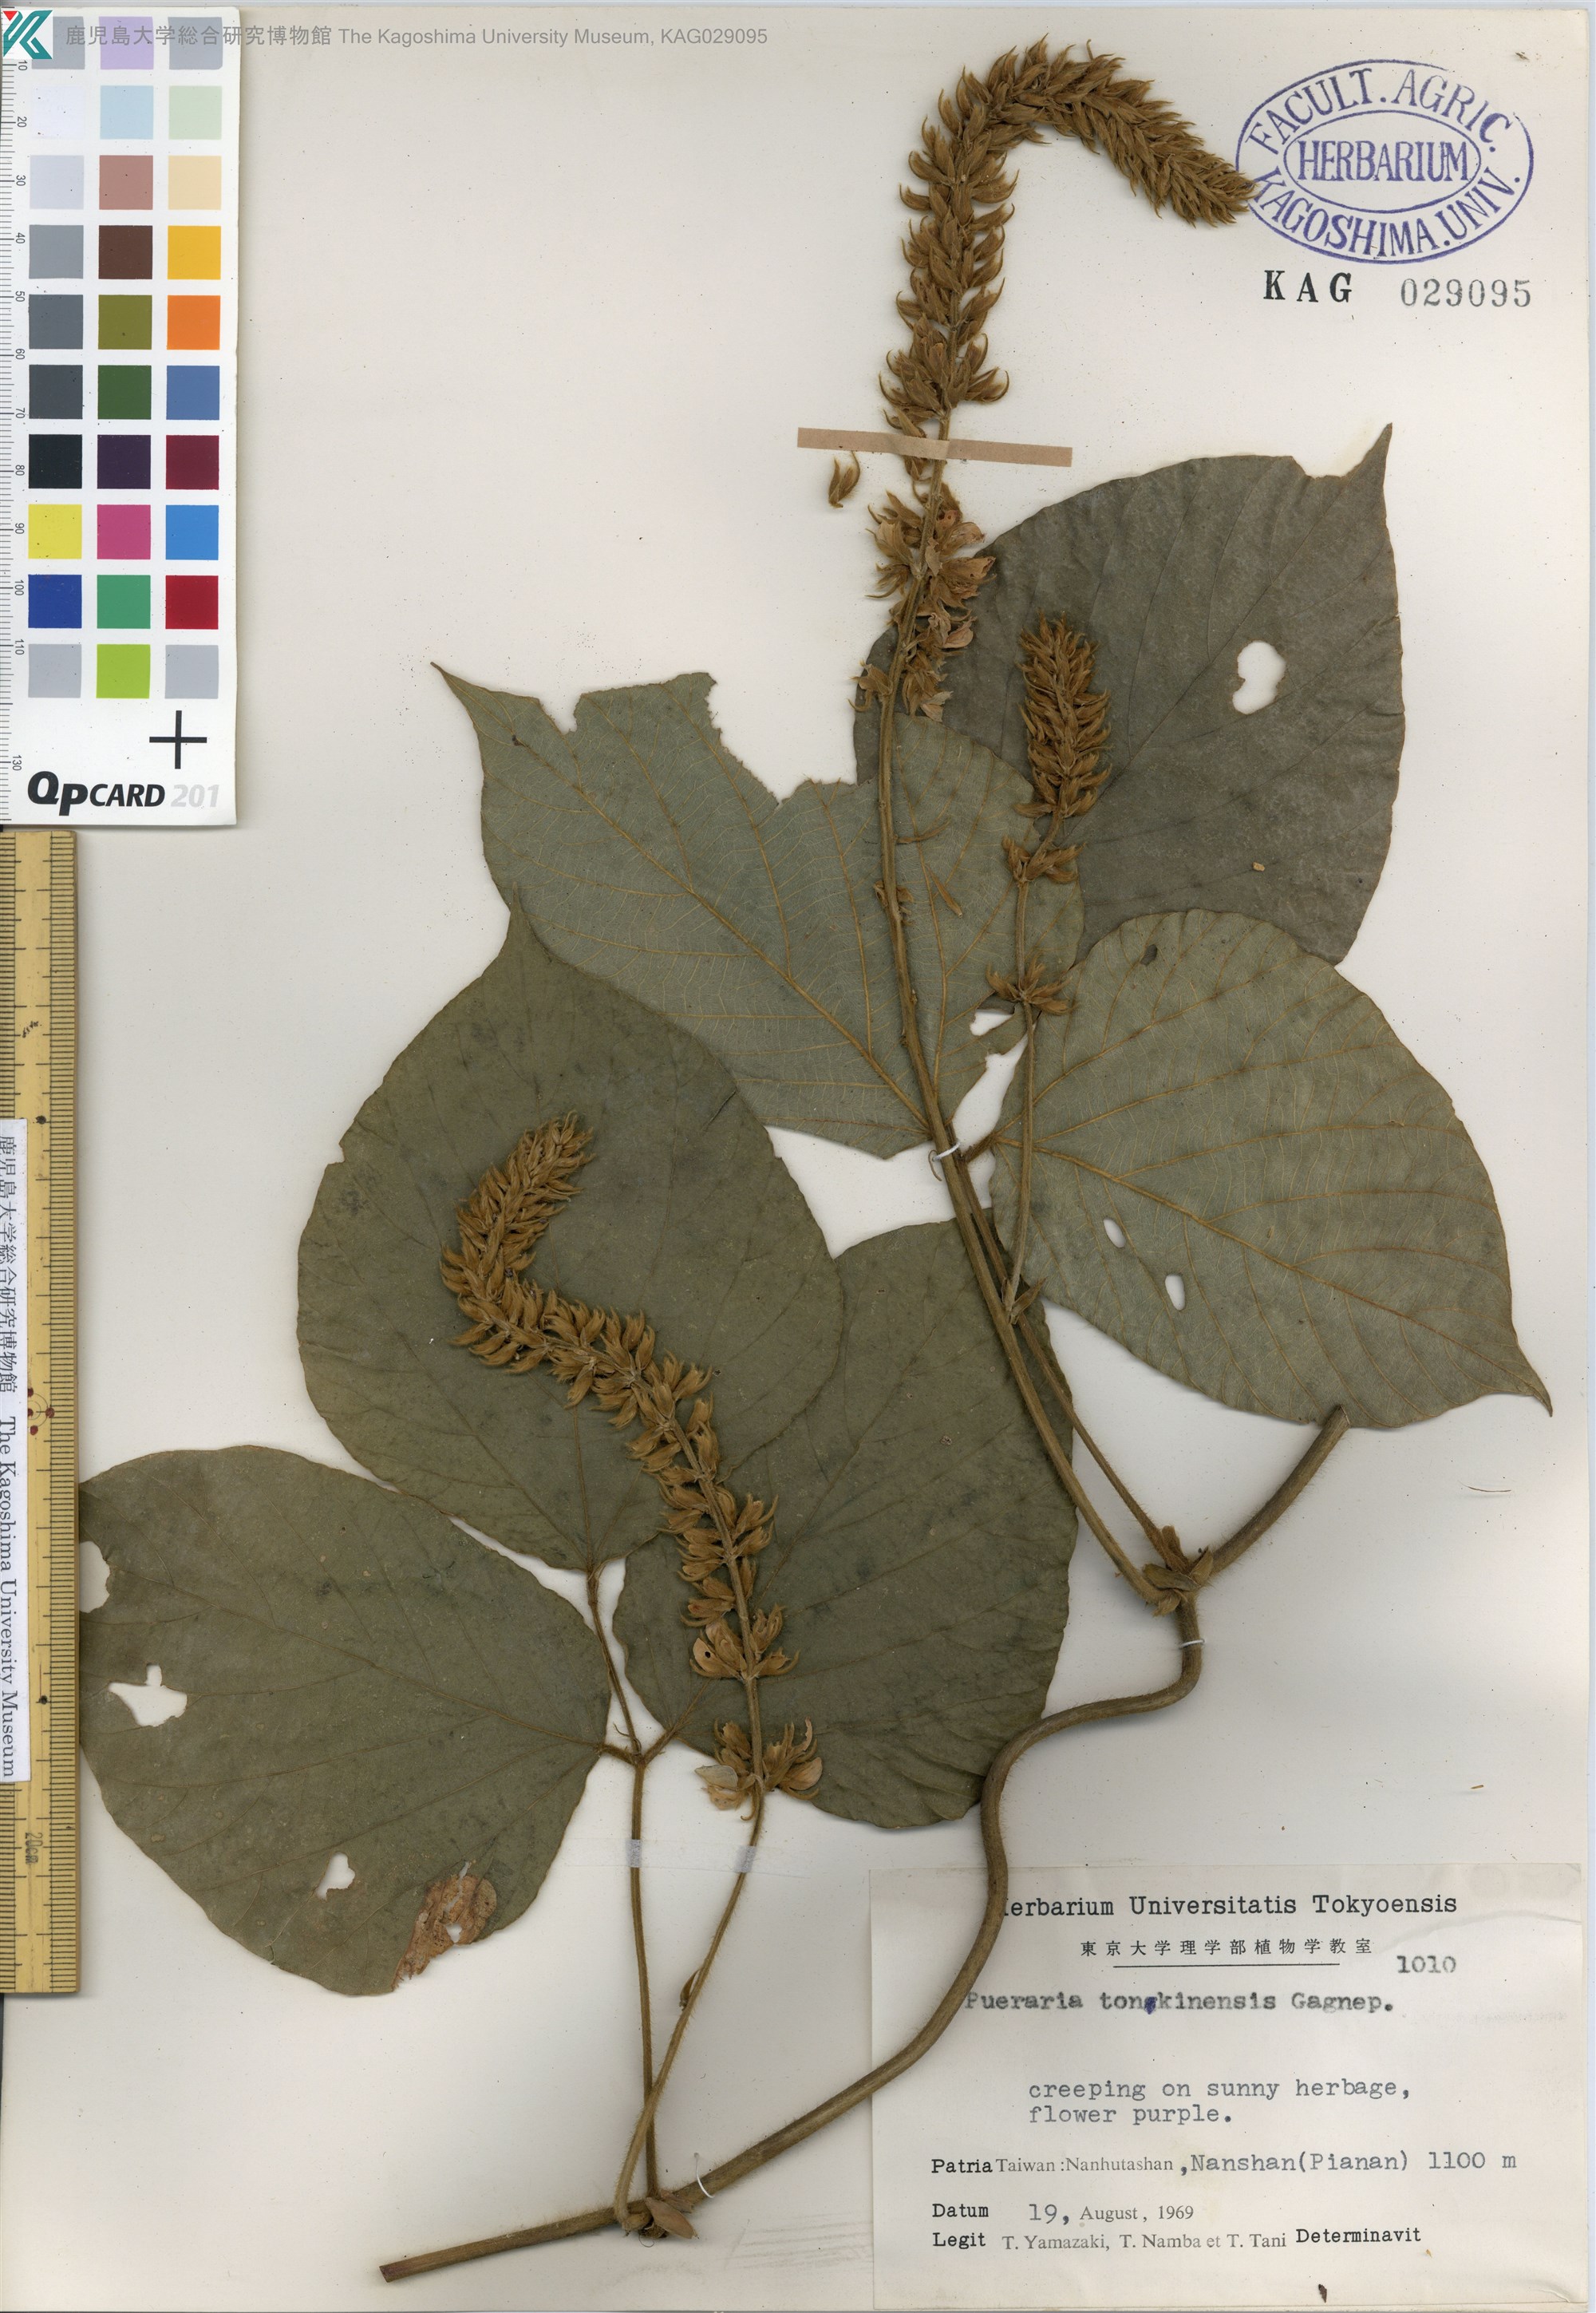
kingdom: Plantae
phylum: Tracheophyta
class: Magnoliopsida
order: Fabales
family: Fabaceae
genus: Pueraria
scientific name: Pueraria montana
